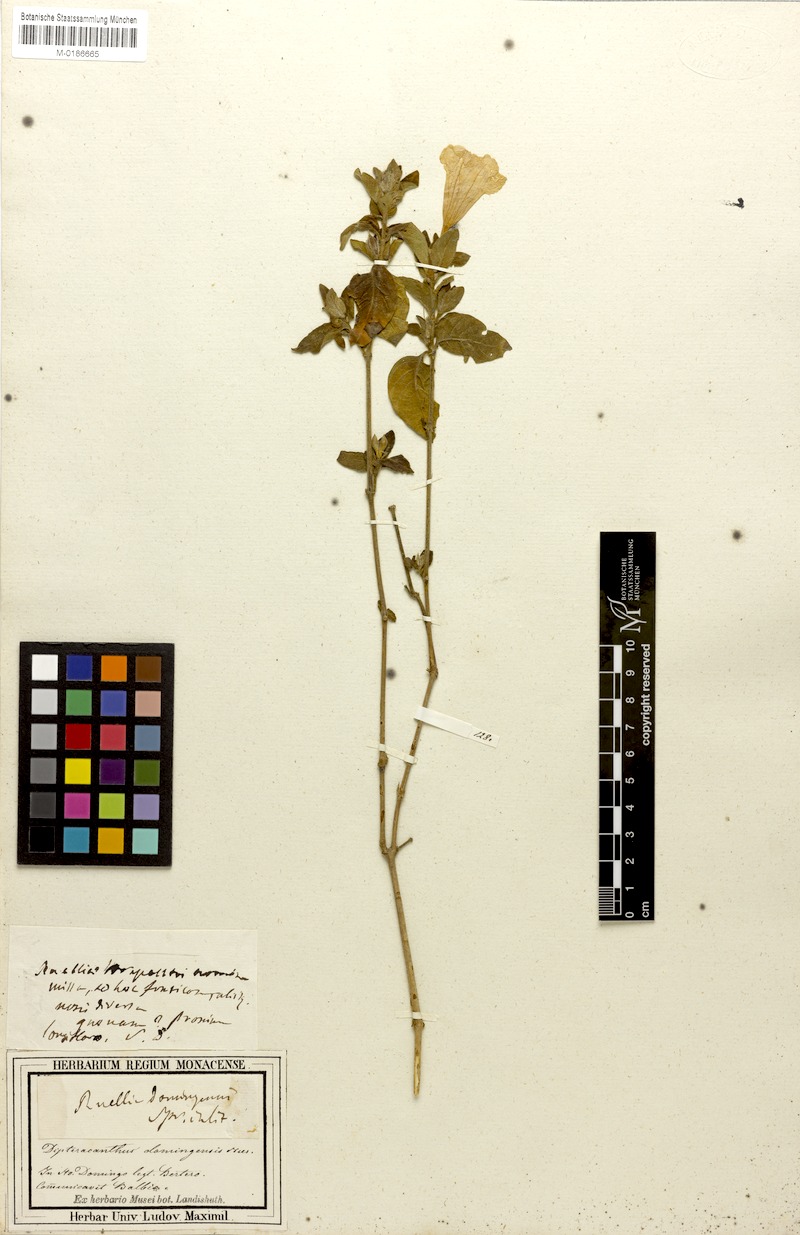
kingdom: Plantae
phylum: Tracheophyta
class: Magnoliopsida
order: Lamiales
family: Acanthaceae
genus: Ruellia
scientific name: Ruellia domingensis
